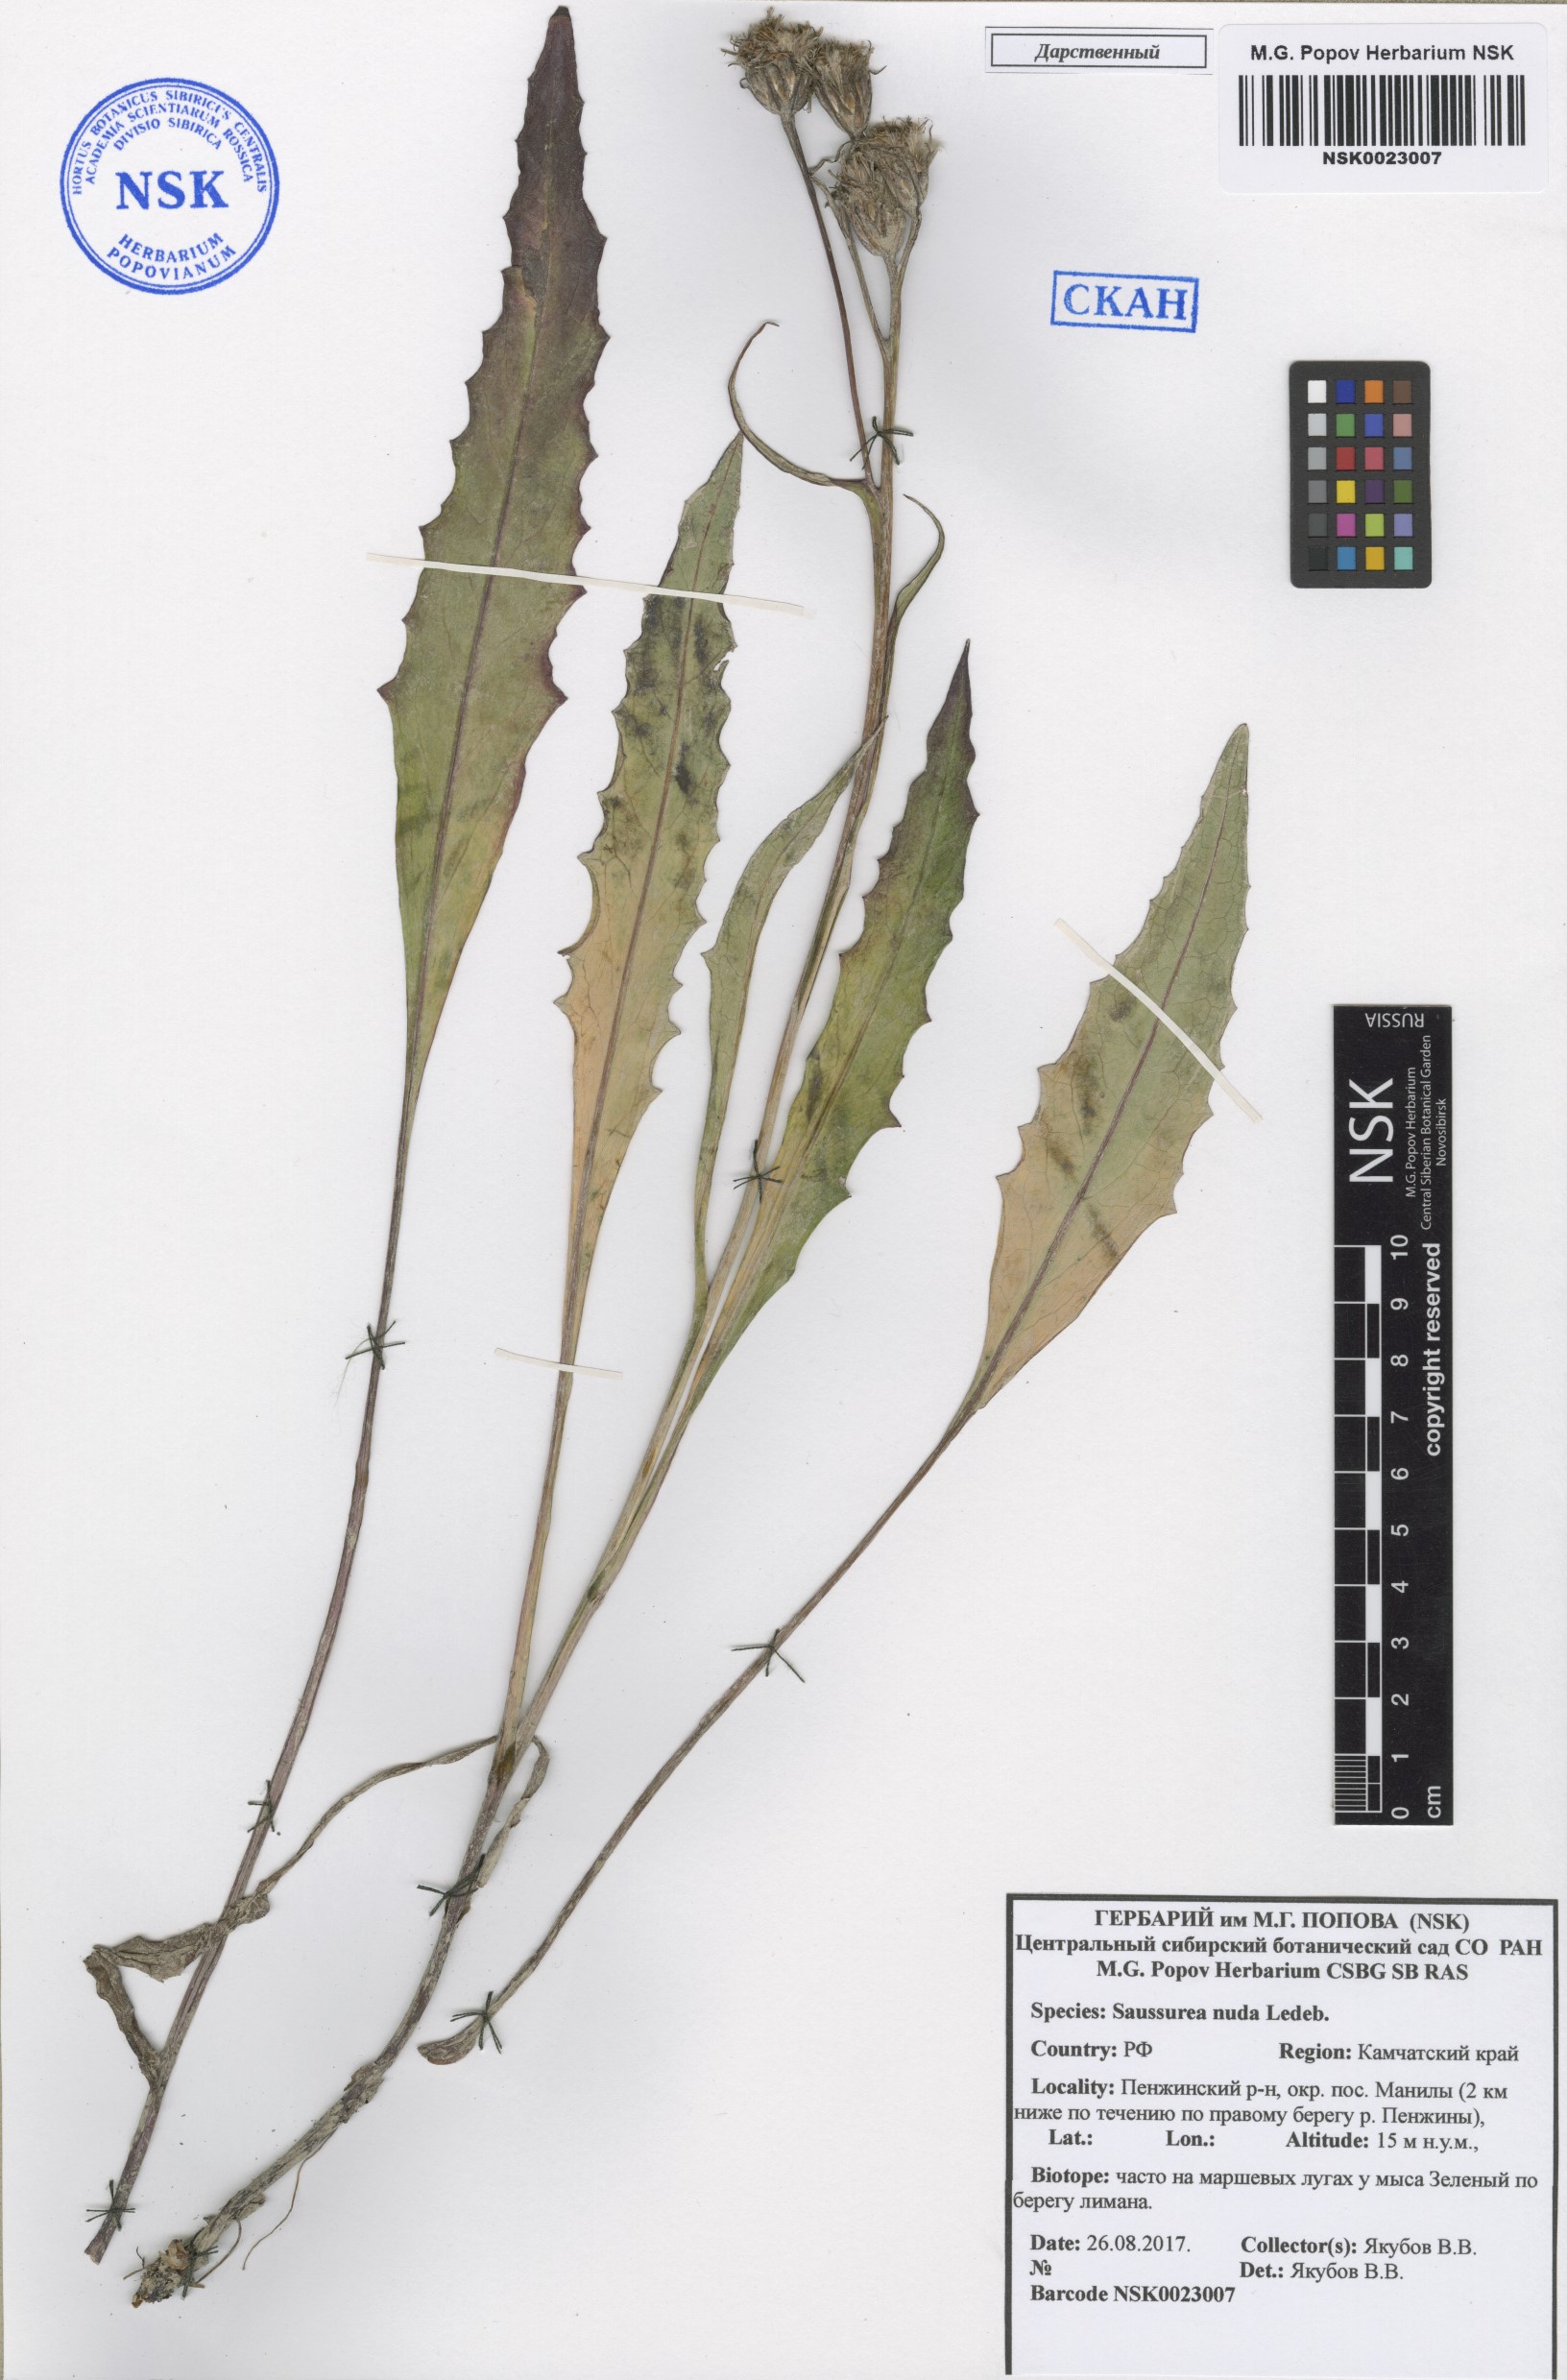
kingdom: Plantae
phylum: Tracheophyta
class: Magnoliopsida
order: Asterales
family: Asteraceae
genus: Saussurea
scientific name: Saussurea nuda
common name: Chaffless saw-wort
